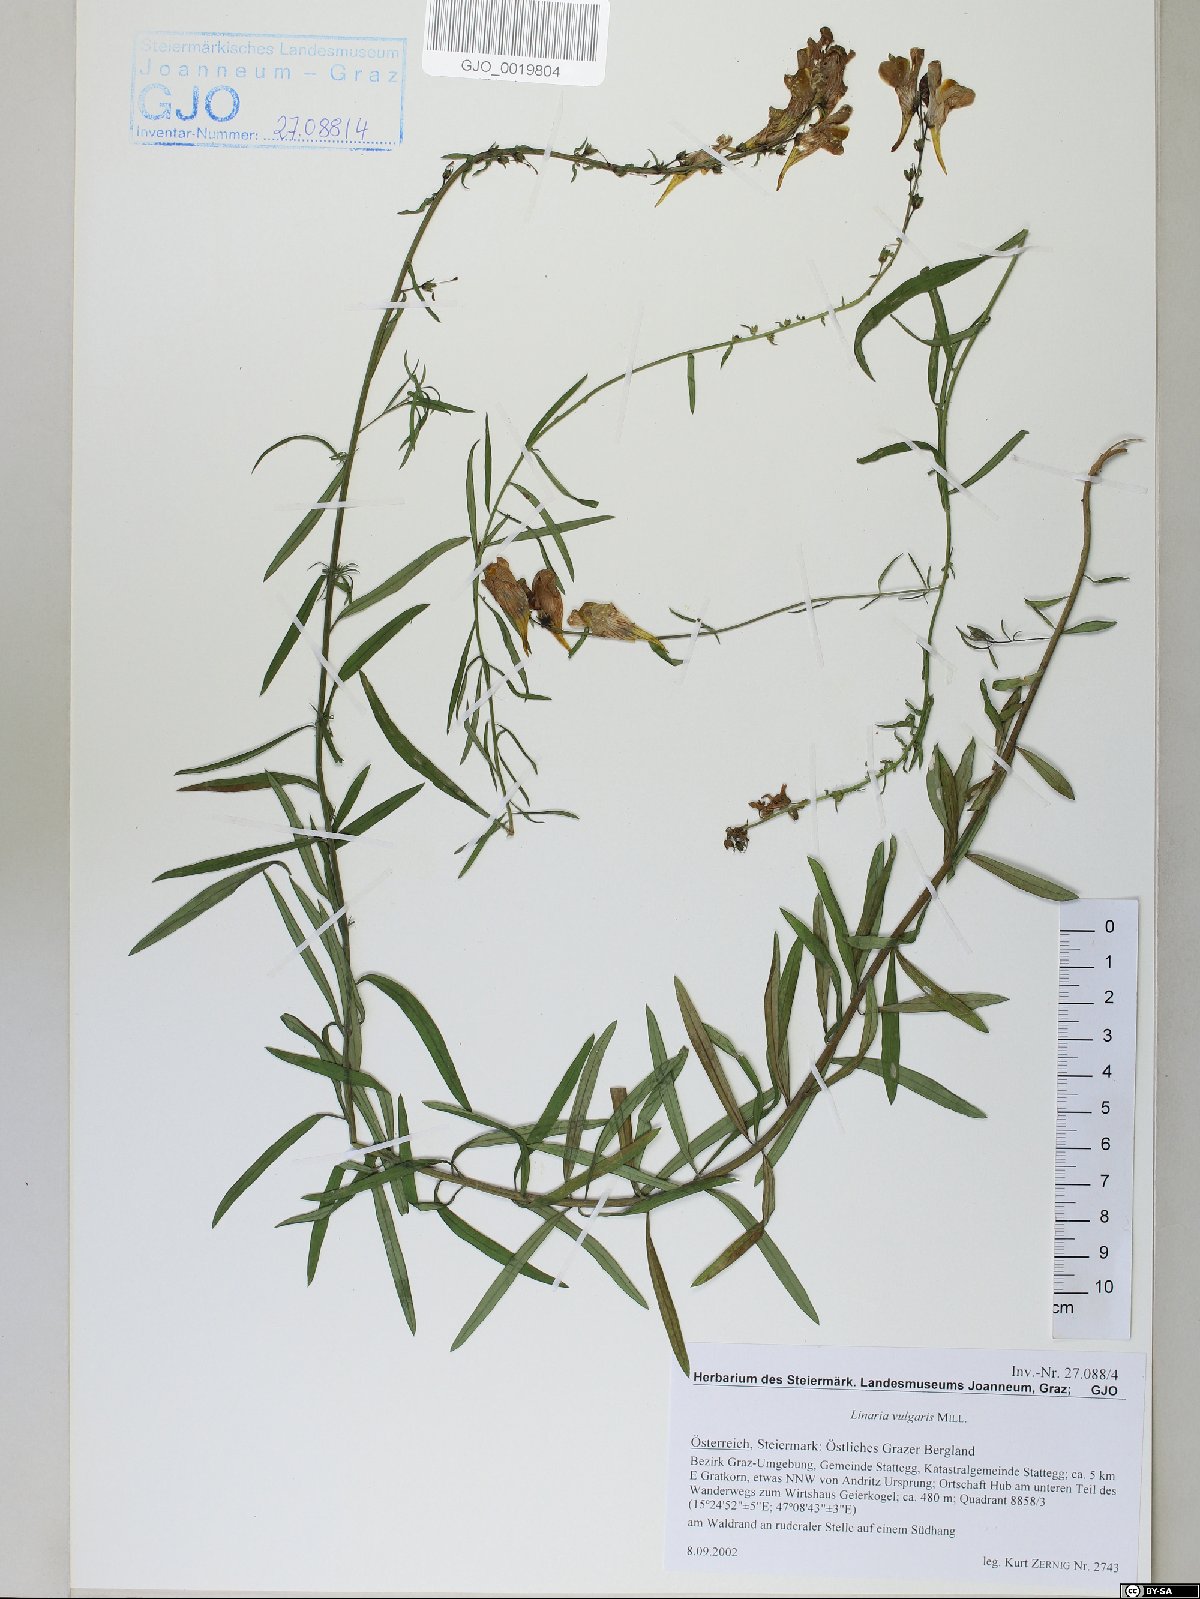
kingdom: Plantae
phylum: Tracheophyta
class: Magnoliopsida
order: Lamiales
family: Plantaginaceae
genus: Linaria
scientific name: Linaria vulgaris
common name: Butter and eggs
